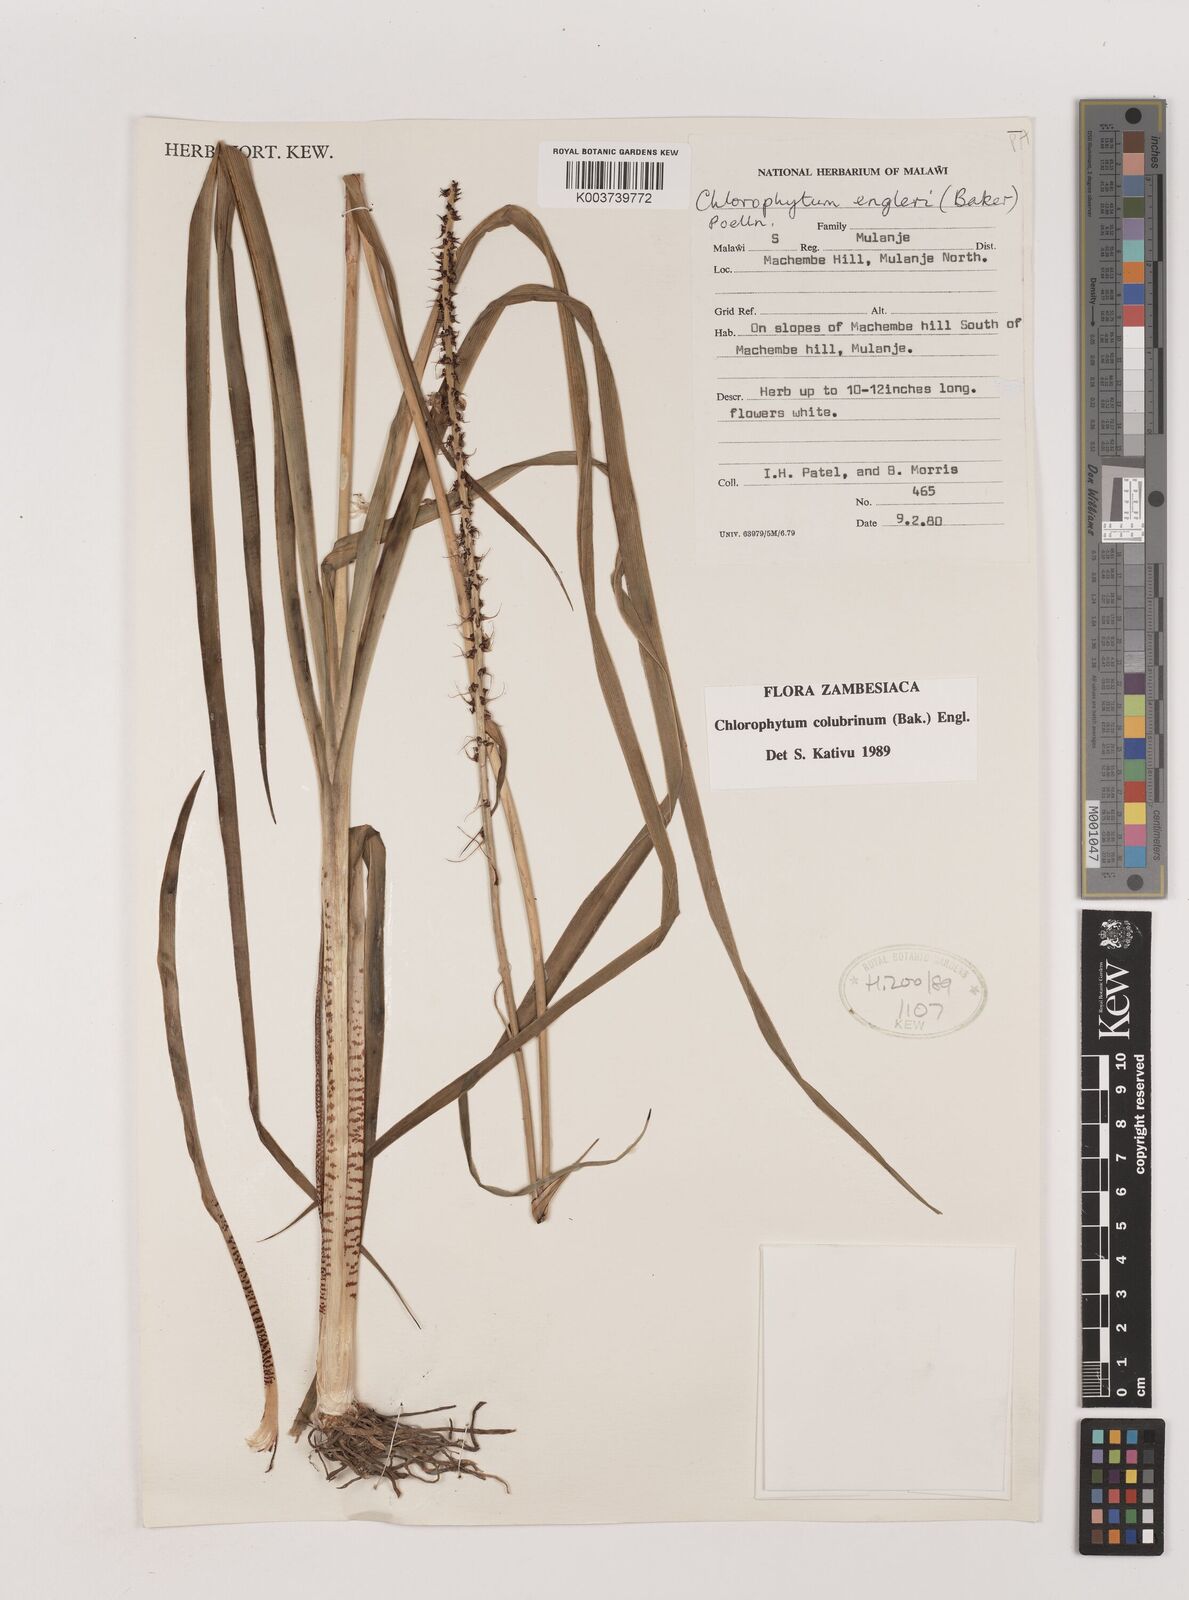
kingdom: Plantae
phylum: Tracheophyta
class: Liliopsida
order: Asparagales
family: Asparagaceae
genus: Chlorophytum
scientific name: Chlorophytum colubrinum
